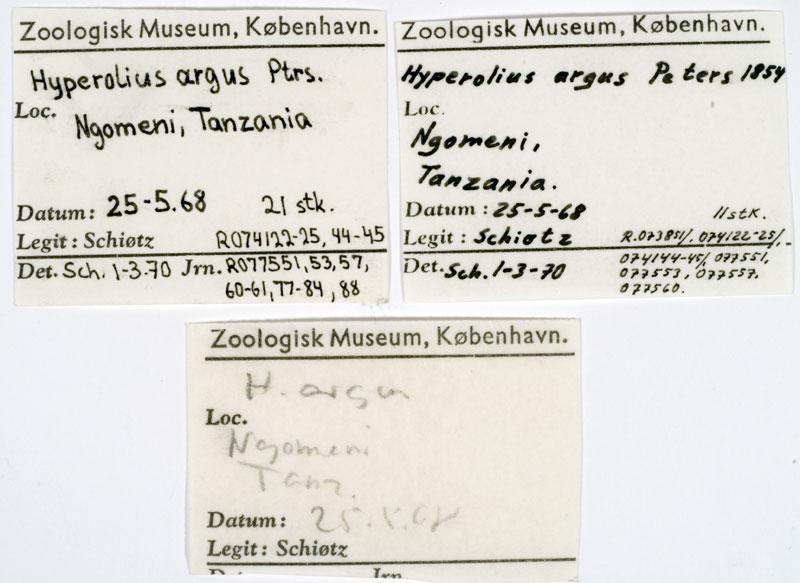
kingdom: Animalia
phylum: Chordata
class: Amphibia
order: Anura
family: Hyperoliidae
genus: Hyperolius
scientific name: Hyperolius argus
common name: Argus reed frog
